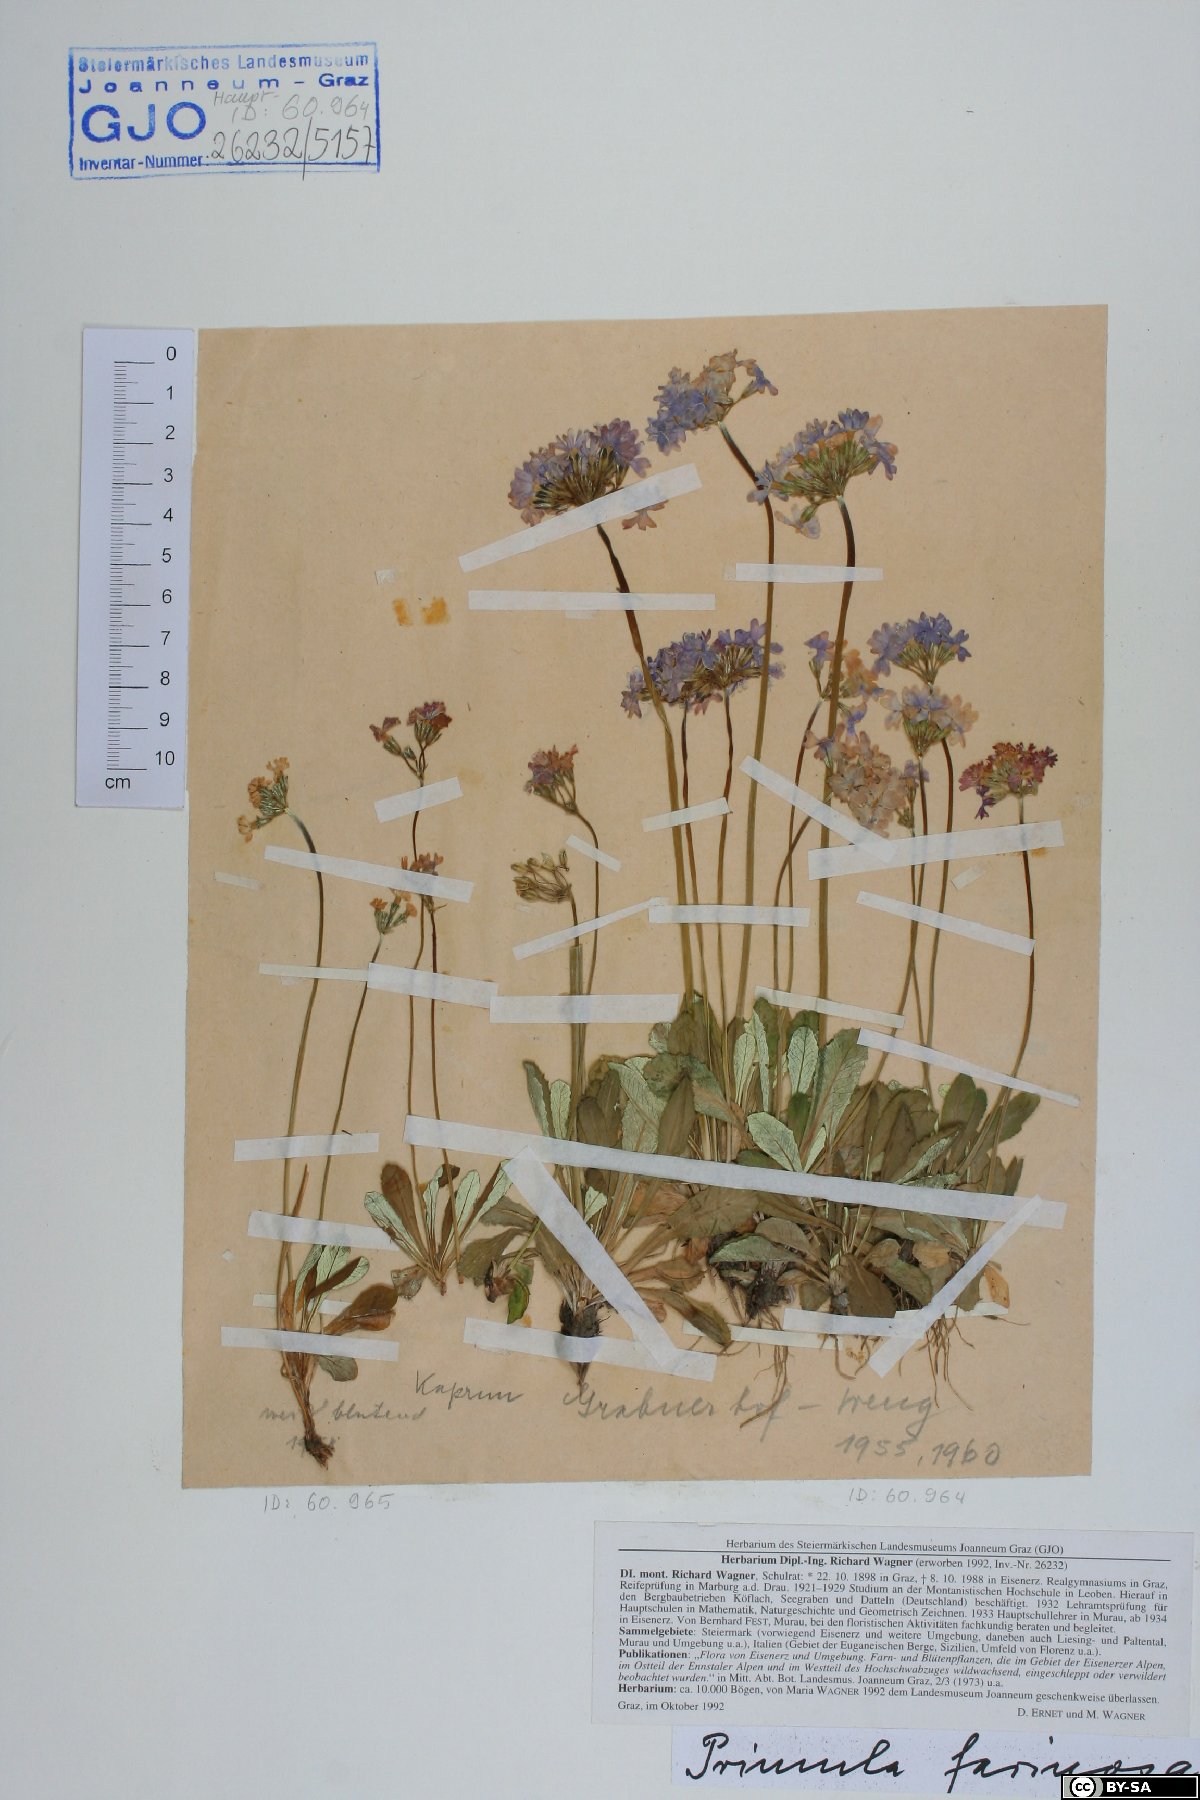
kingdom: Plantae
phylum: Tracheophyta
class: Magnoliopsida
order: Ericales
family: Primulaceae
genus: Primula
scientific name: Primula farinosa
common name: Bird's-eye primrose
